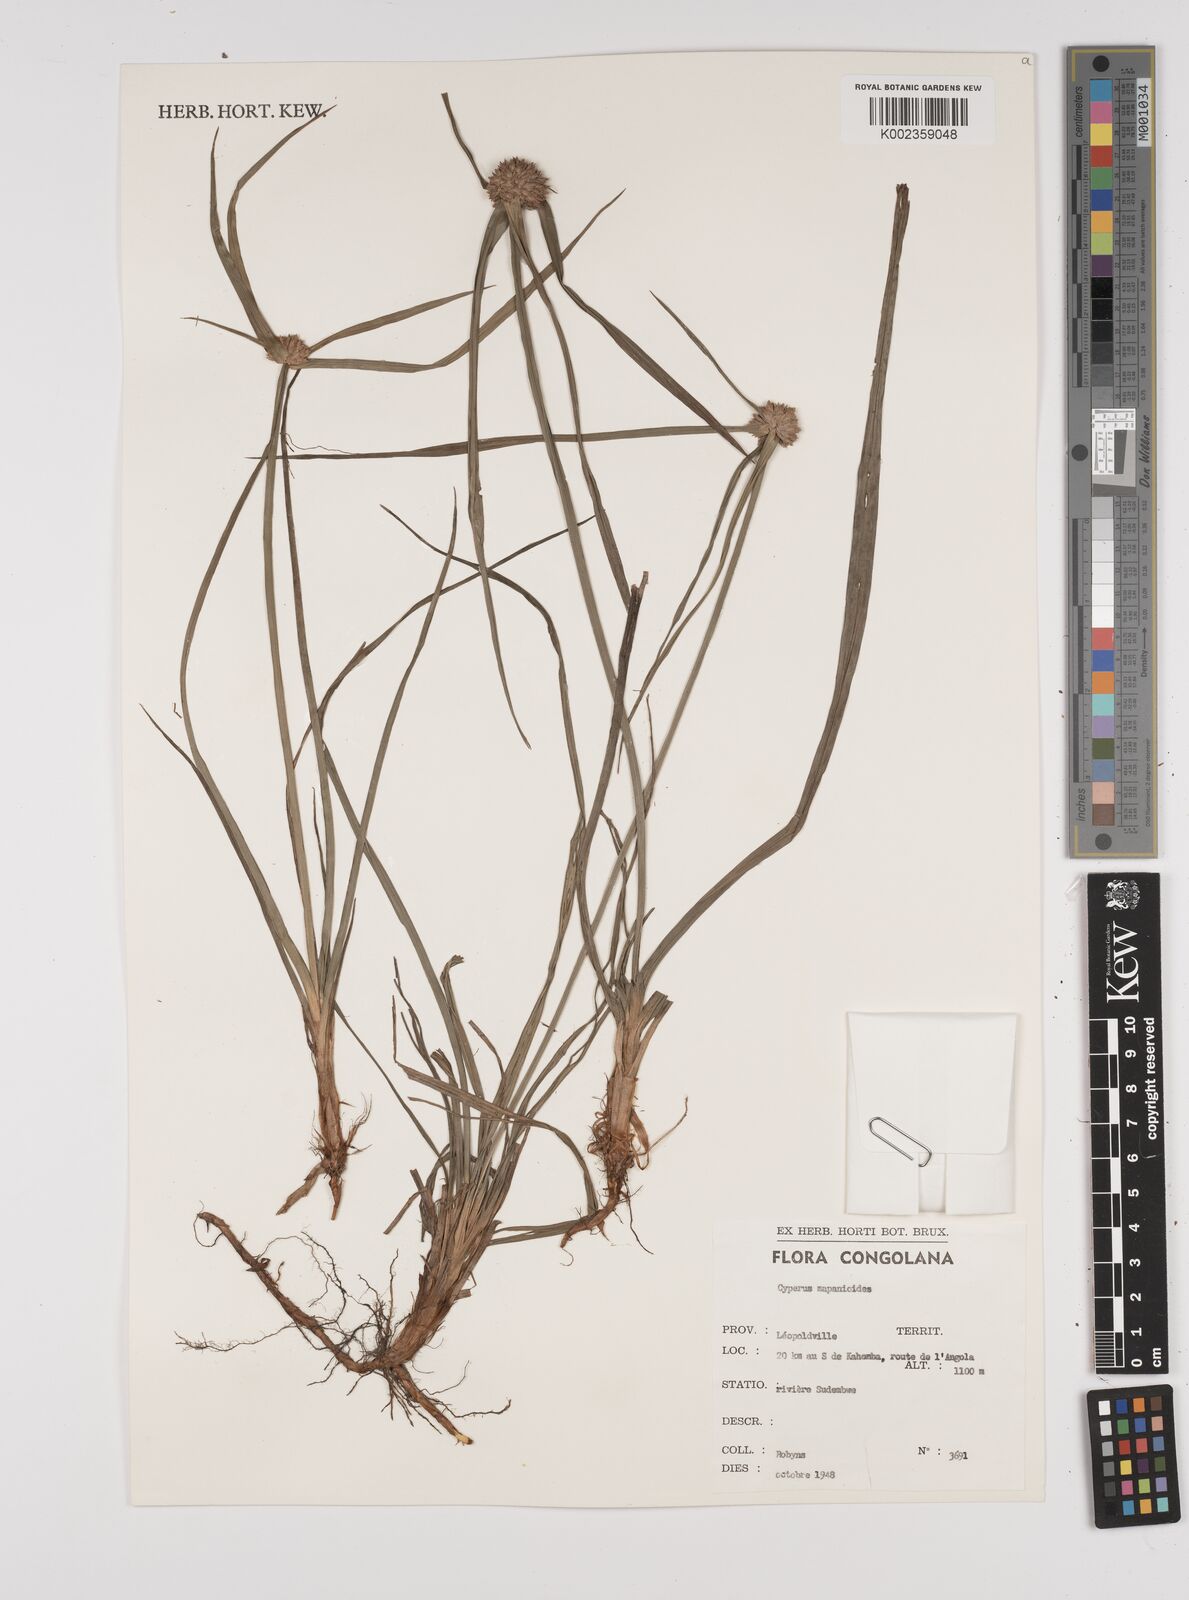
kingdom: Plantae
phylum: Tracheophyta
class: Liliopsida
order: Poales
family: Cyperaceae
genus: Cyperus
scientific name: Cyperus mapanioides
